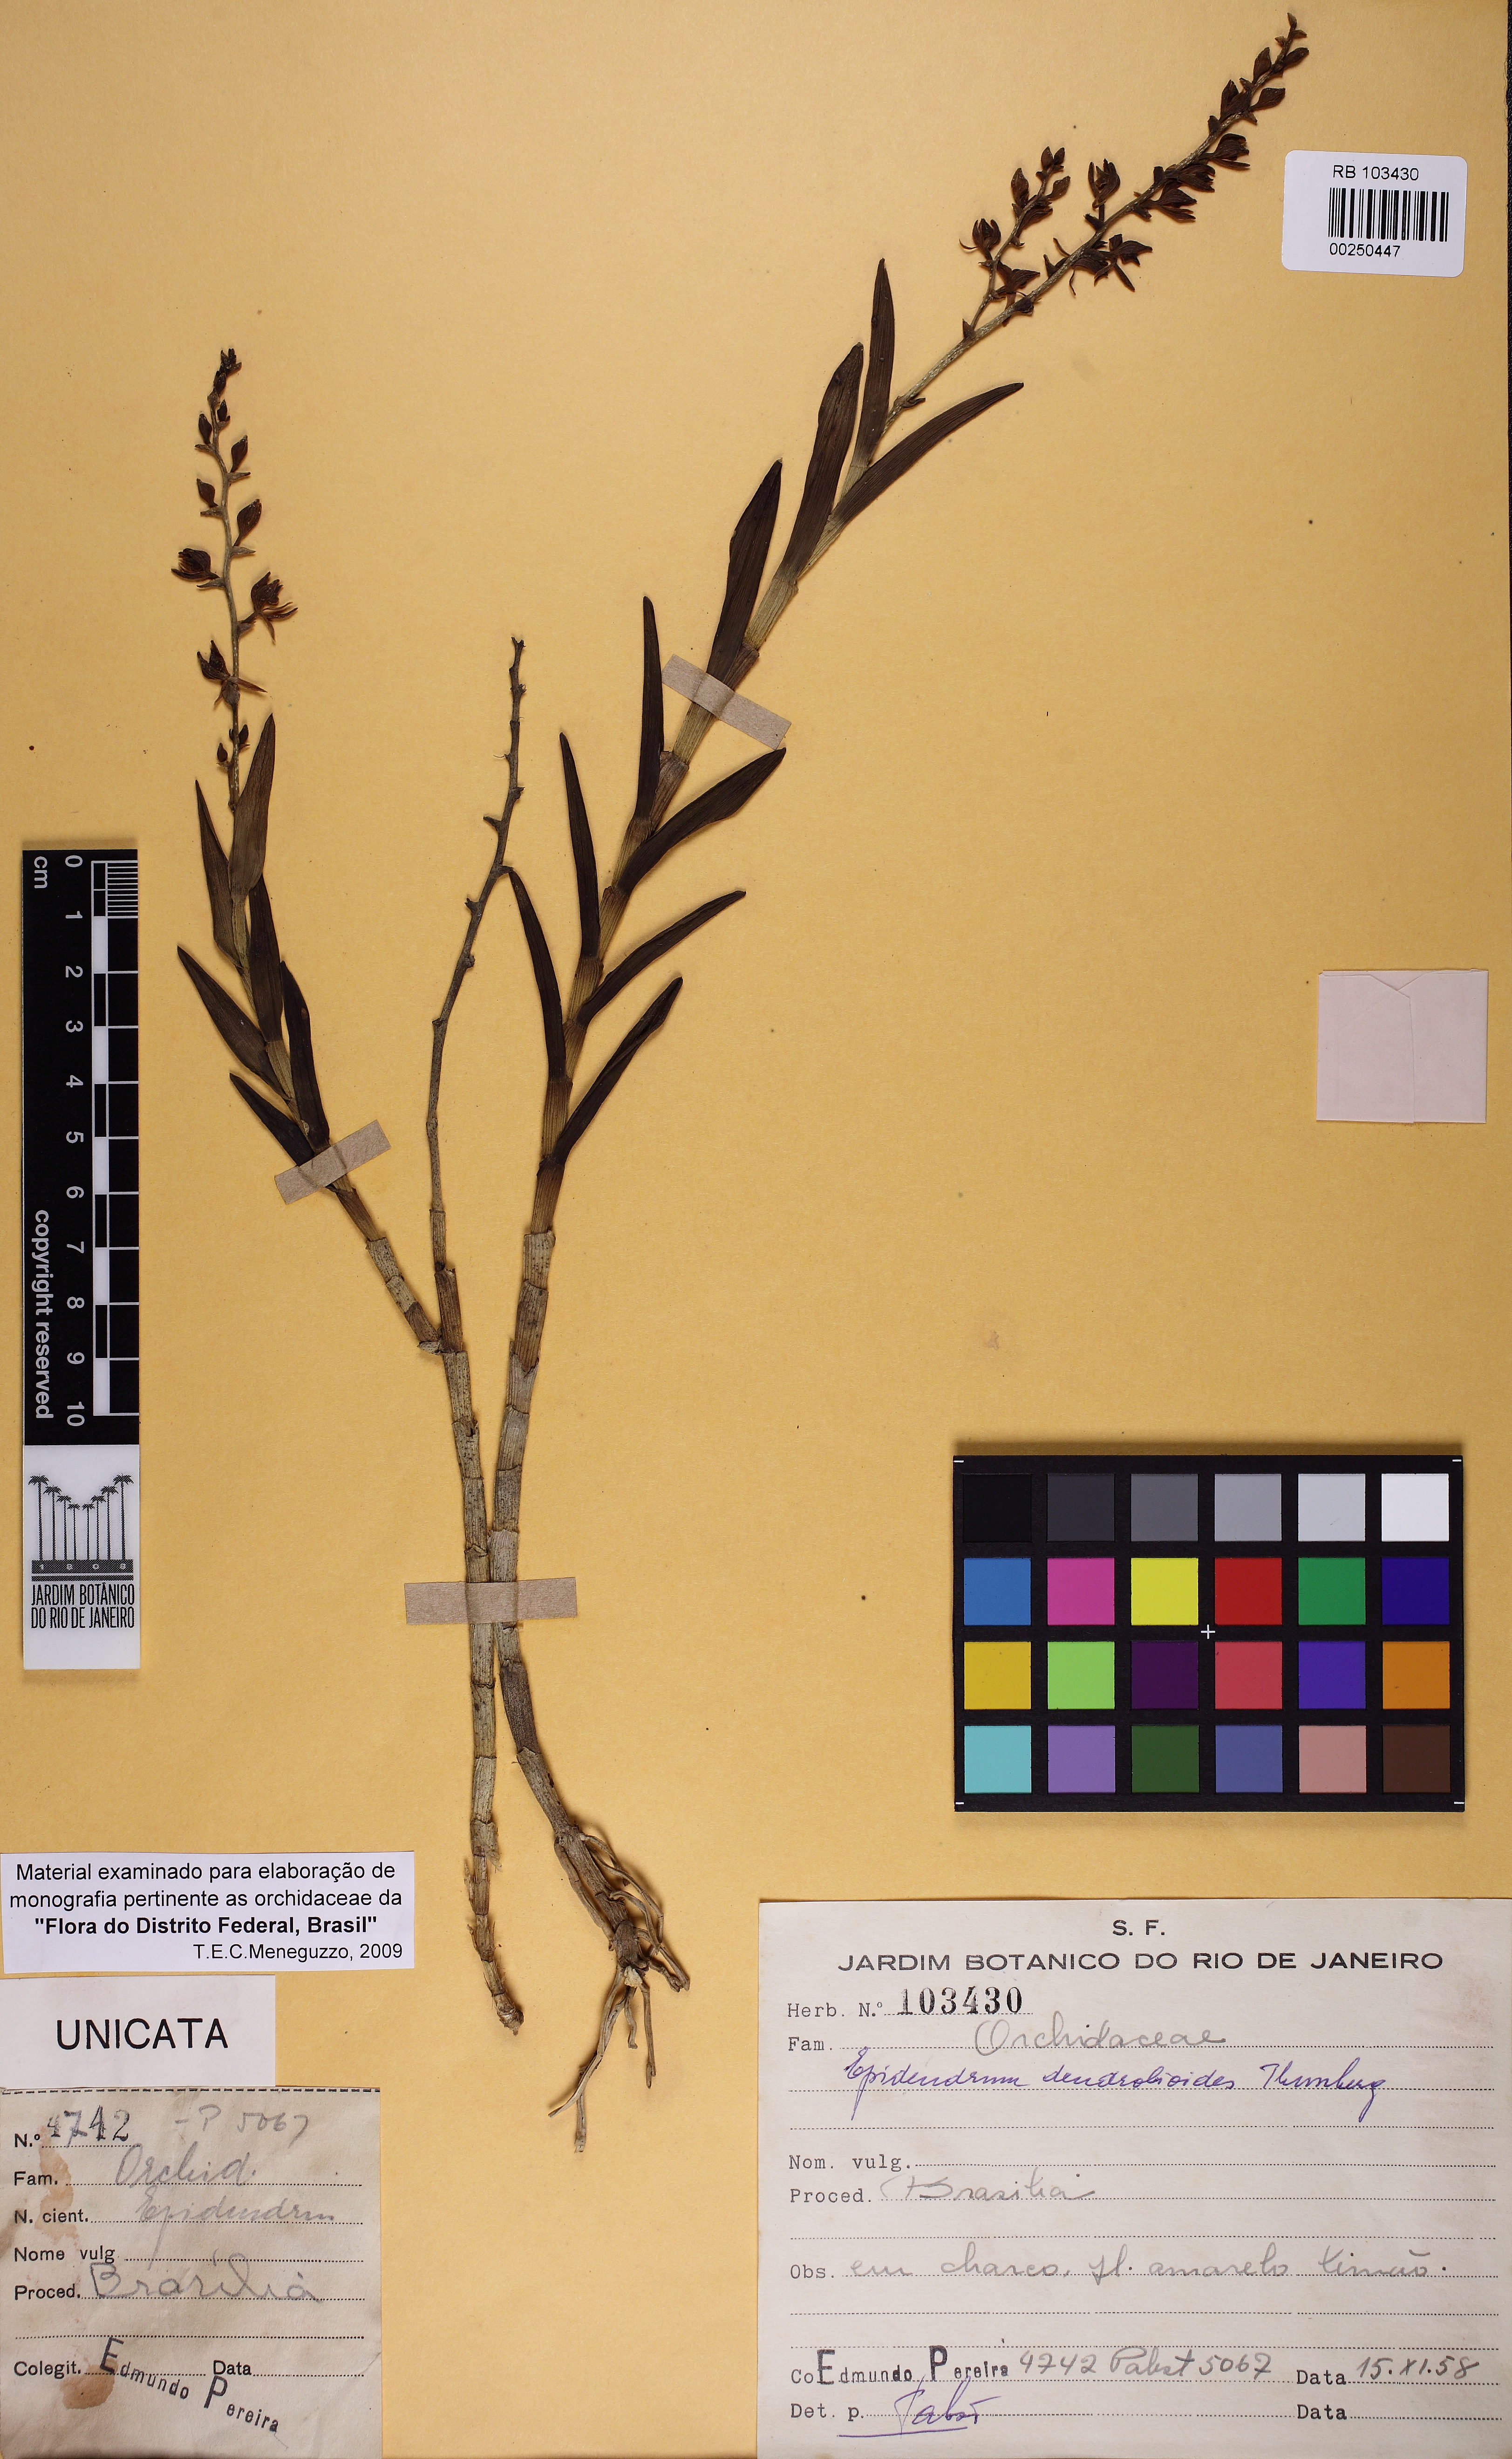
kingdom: Plantae
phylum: Tracheophyta
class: Liliopsida
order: Asparagales
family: Orchidaceae
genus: Epidendrum
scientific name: Epidendrum dendrobioides
